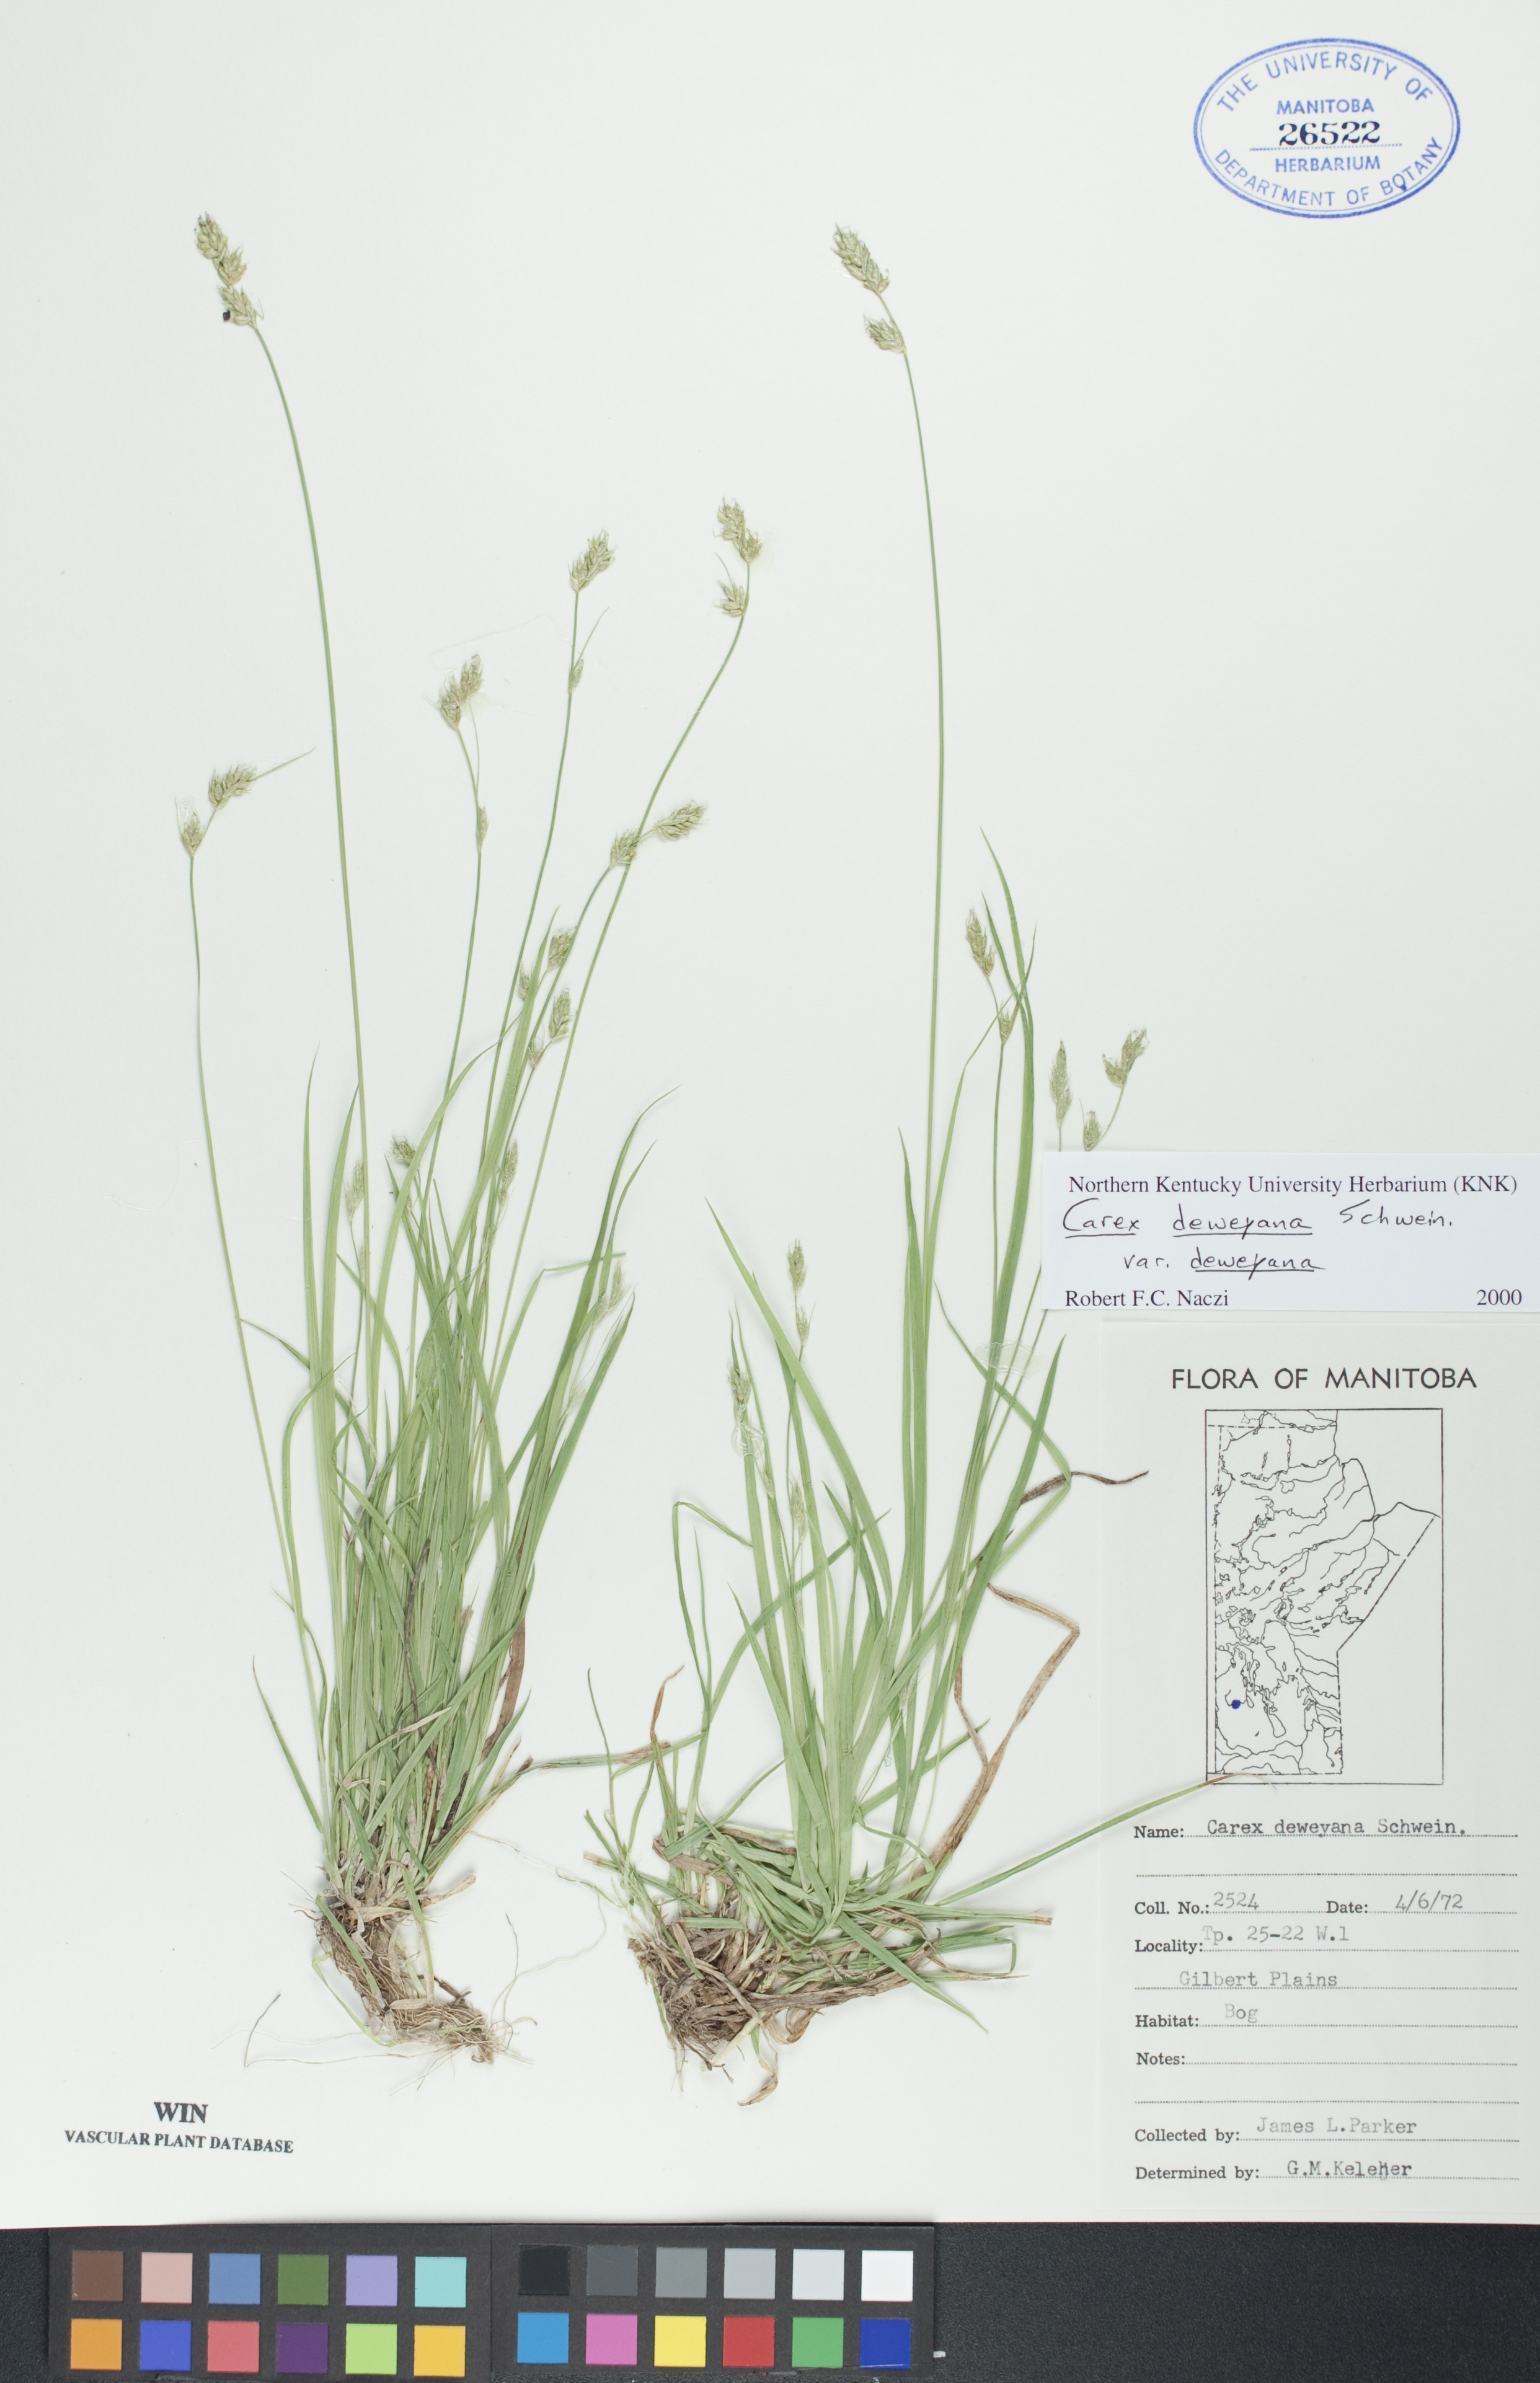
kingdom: Plantae
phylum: Tracheophyta
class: Liliopsida
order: Poales
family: Cyperaceae
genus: Carex
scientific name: Carex deweyana
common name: Dewey's sedge
